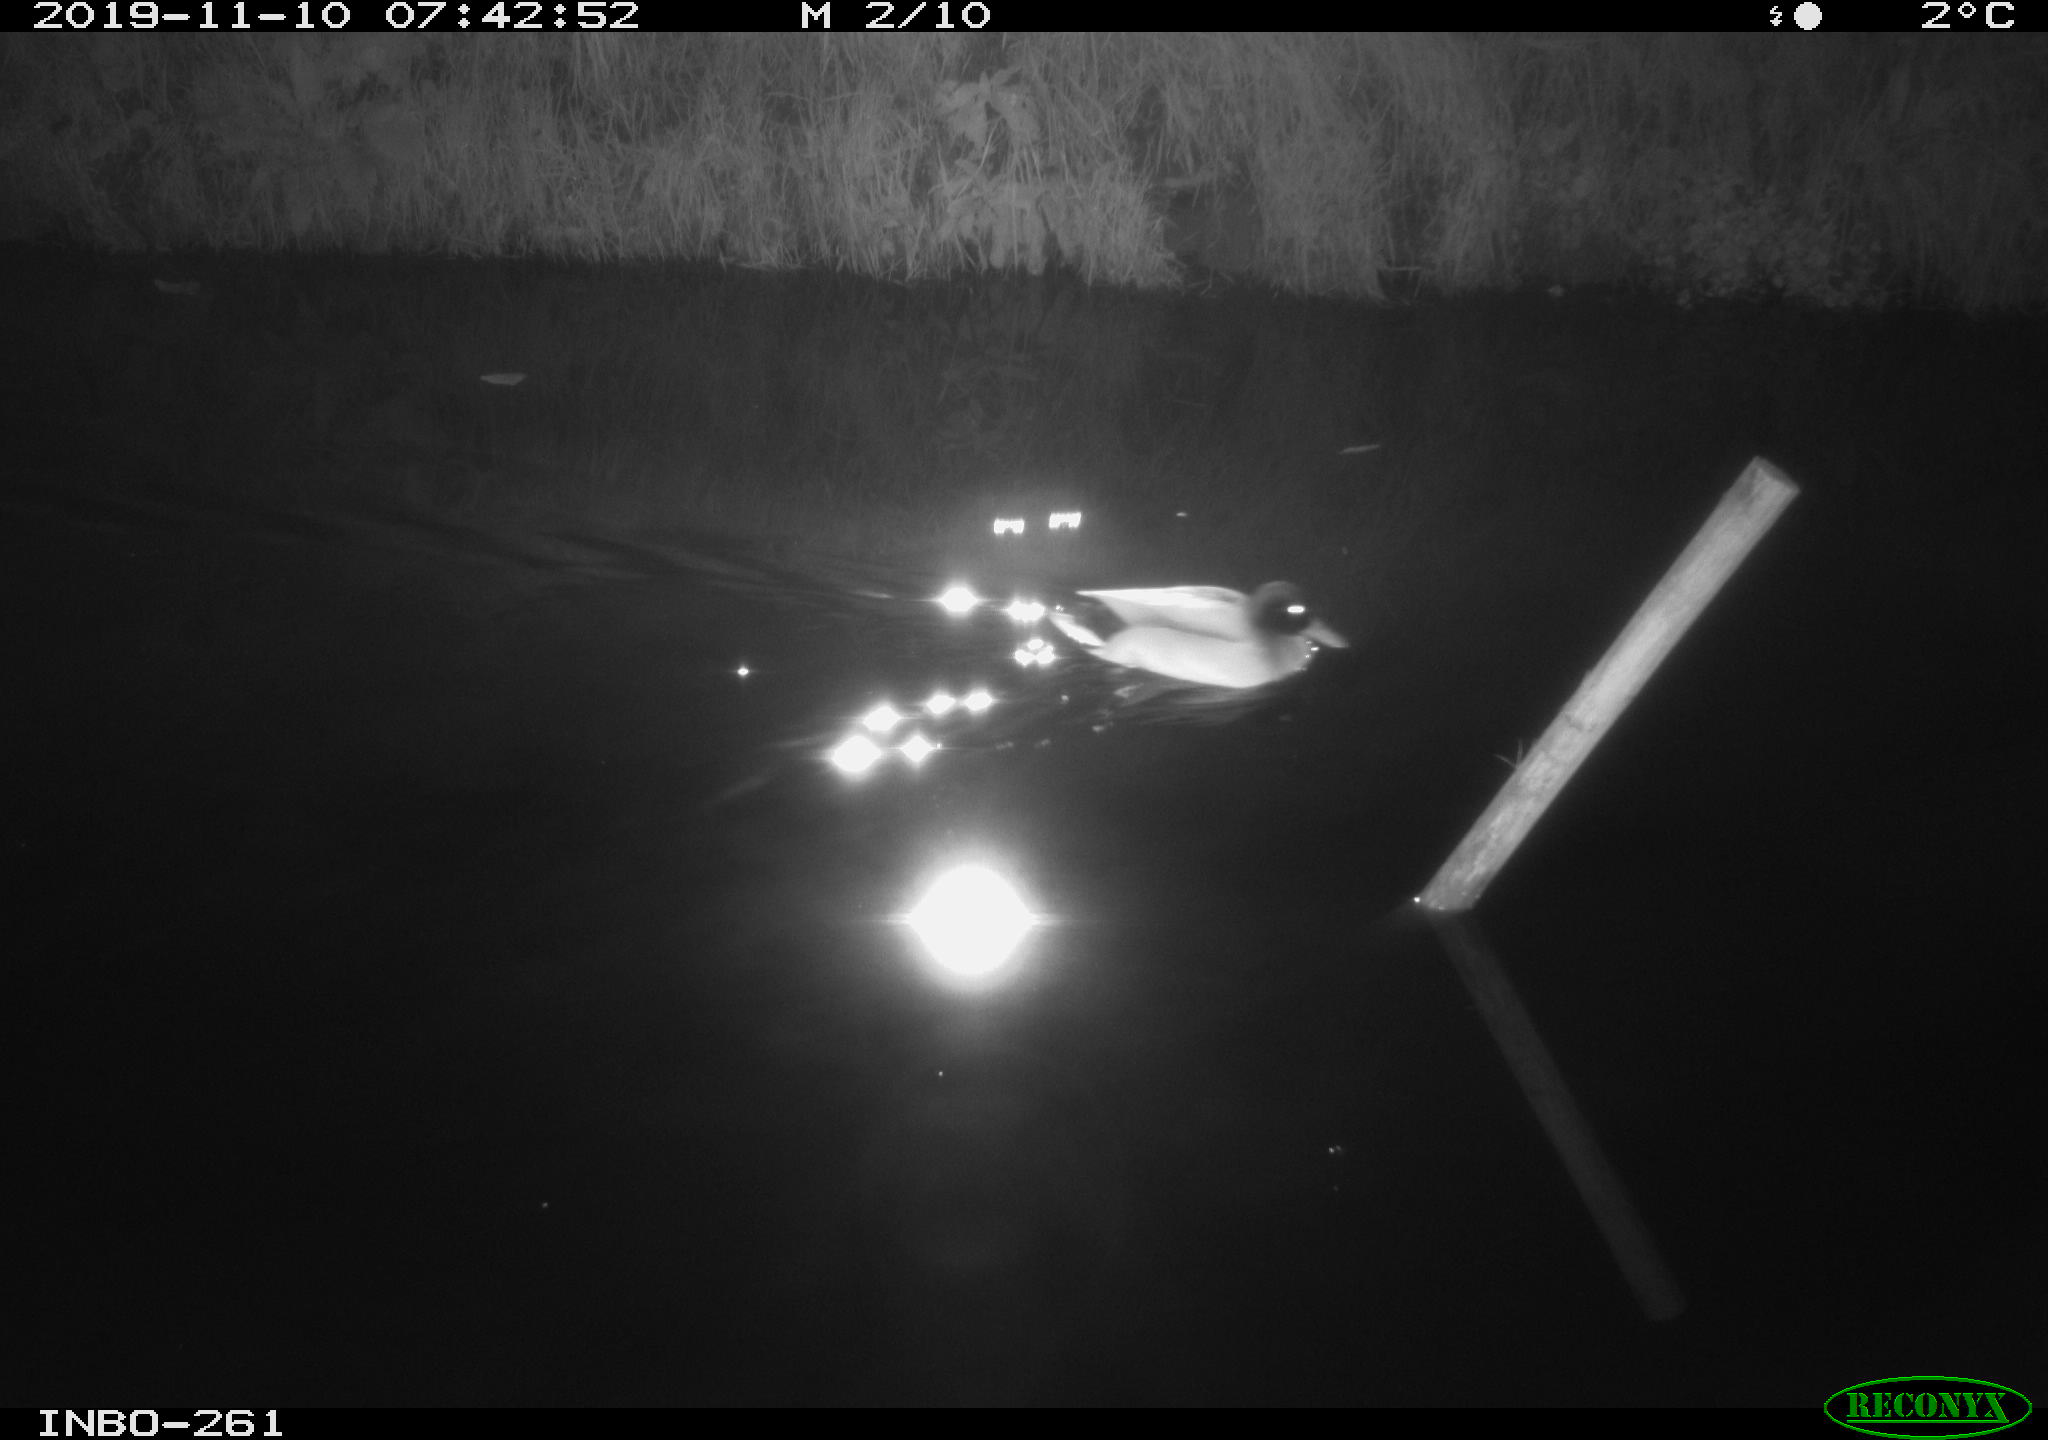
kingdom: Animalia
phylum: Chordata
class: Aves
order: Anseriformes
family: Anatidae
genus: Anas
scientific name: Anas platyrhynchos
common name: Mallard
